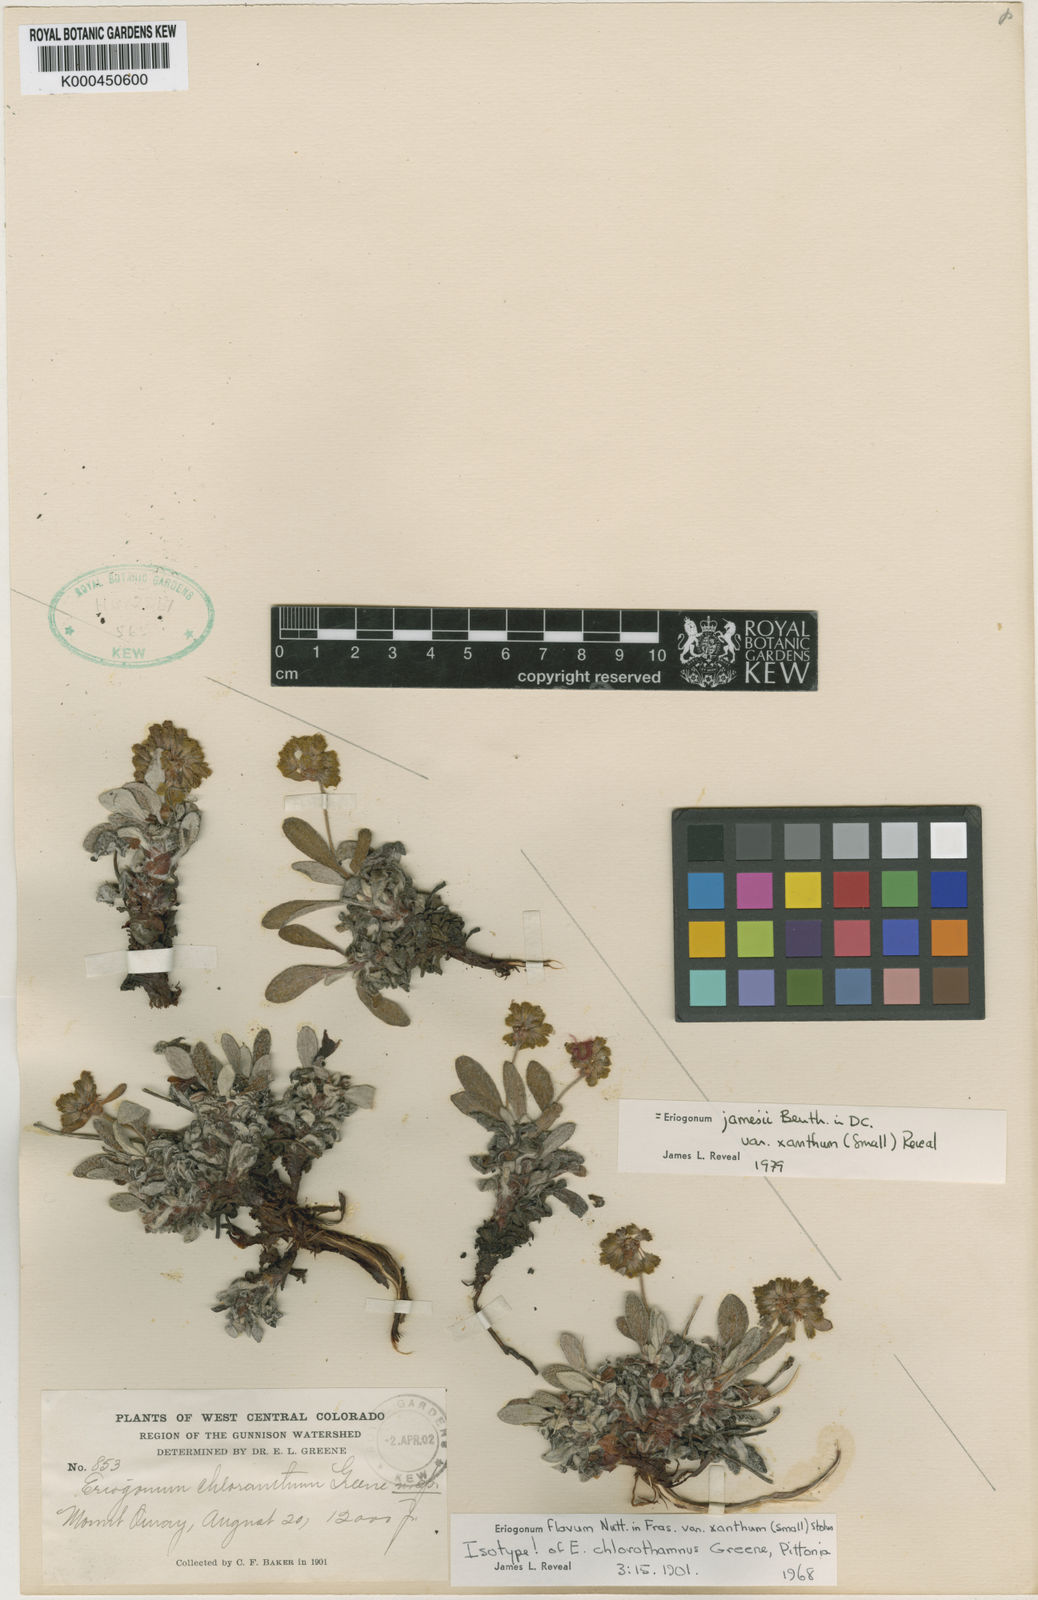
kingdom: Plantae
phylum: Tracheophyta
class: Magnoliopsida
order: Caryophyllales
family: Polygonaceae
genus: Eriogonum
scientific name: Eriogonum arcuatum
